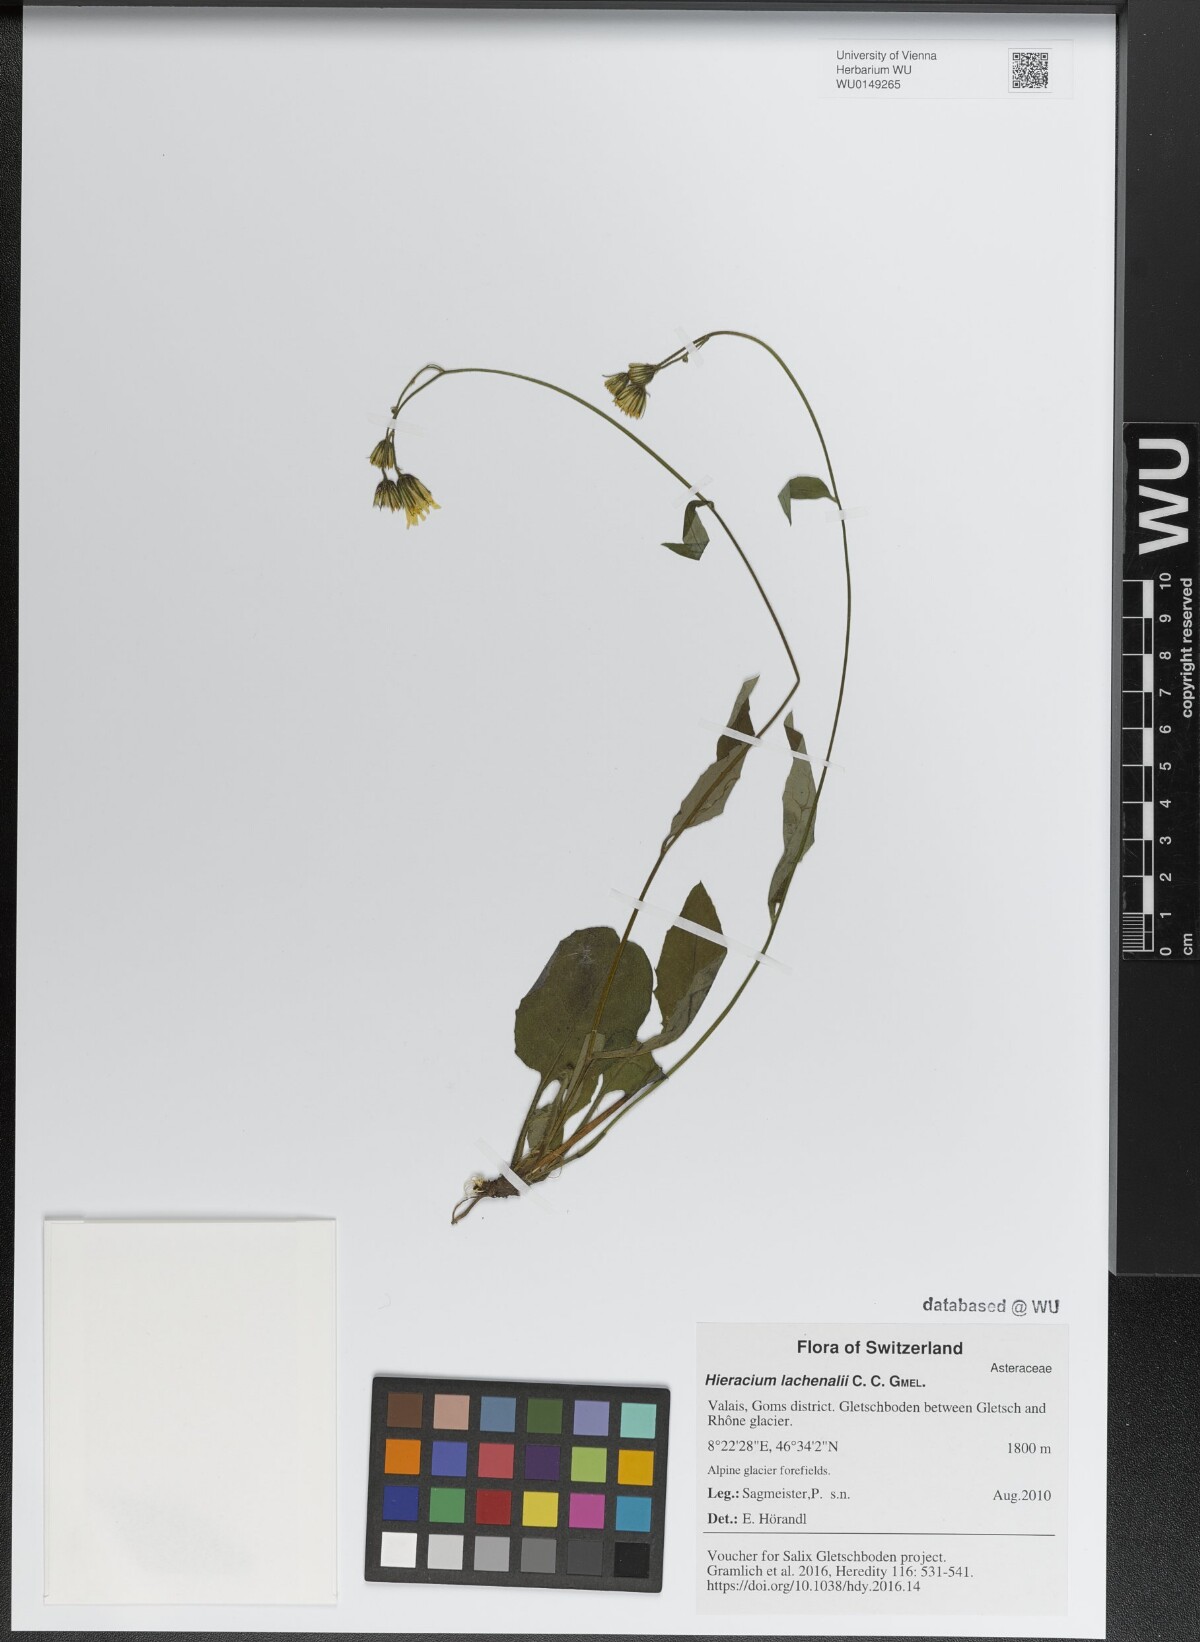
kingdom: Plantae
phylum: Tracheophyta
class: Magnoliopsida
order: Asterales
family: Asteraceae
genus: Hieracium
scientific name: Hieracium lachenalii
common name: Common hawkweed
